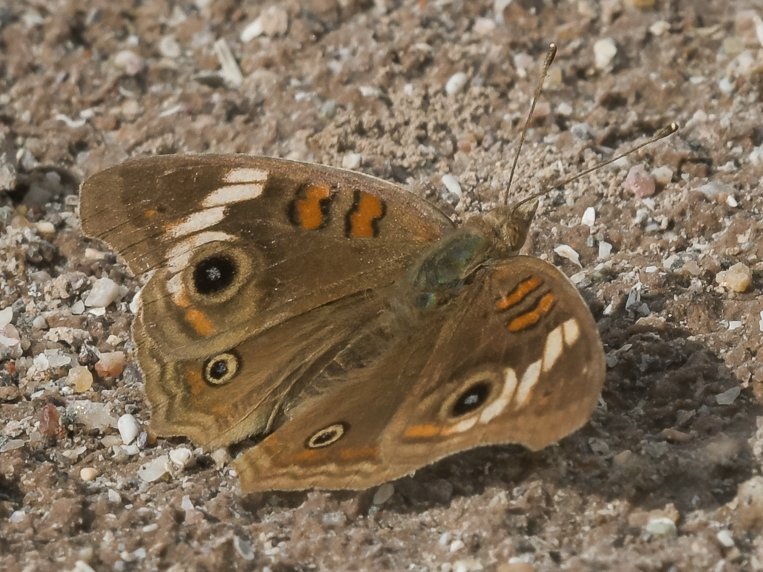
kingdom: Animalia
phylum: Arthropoda
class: Insecta
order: Lepidoptera
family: Nymphalidae
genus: Junonia
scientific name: Junonia
